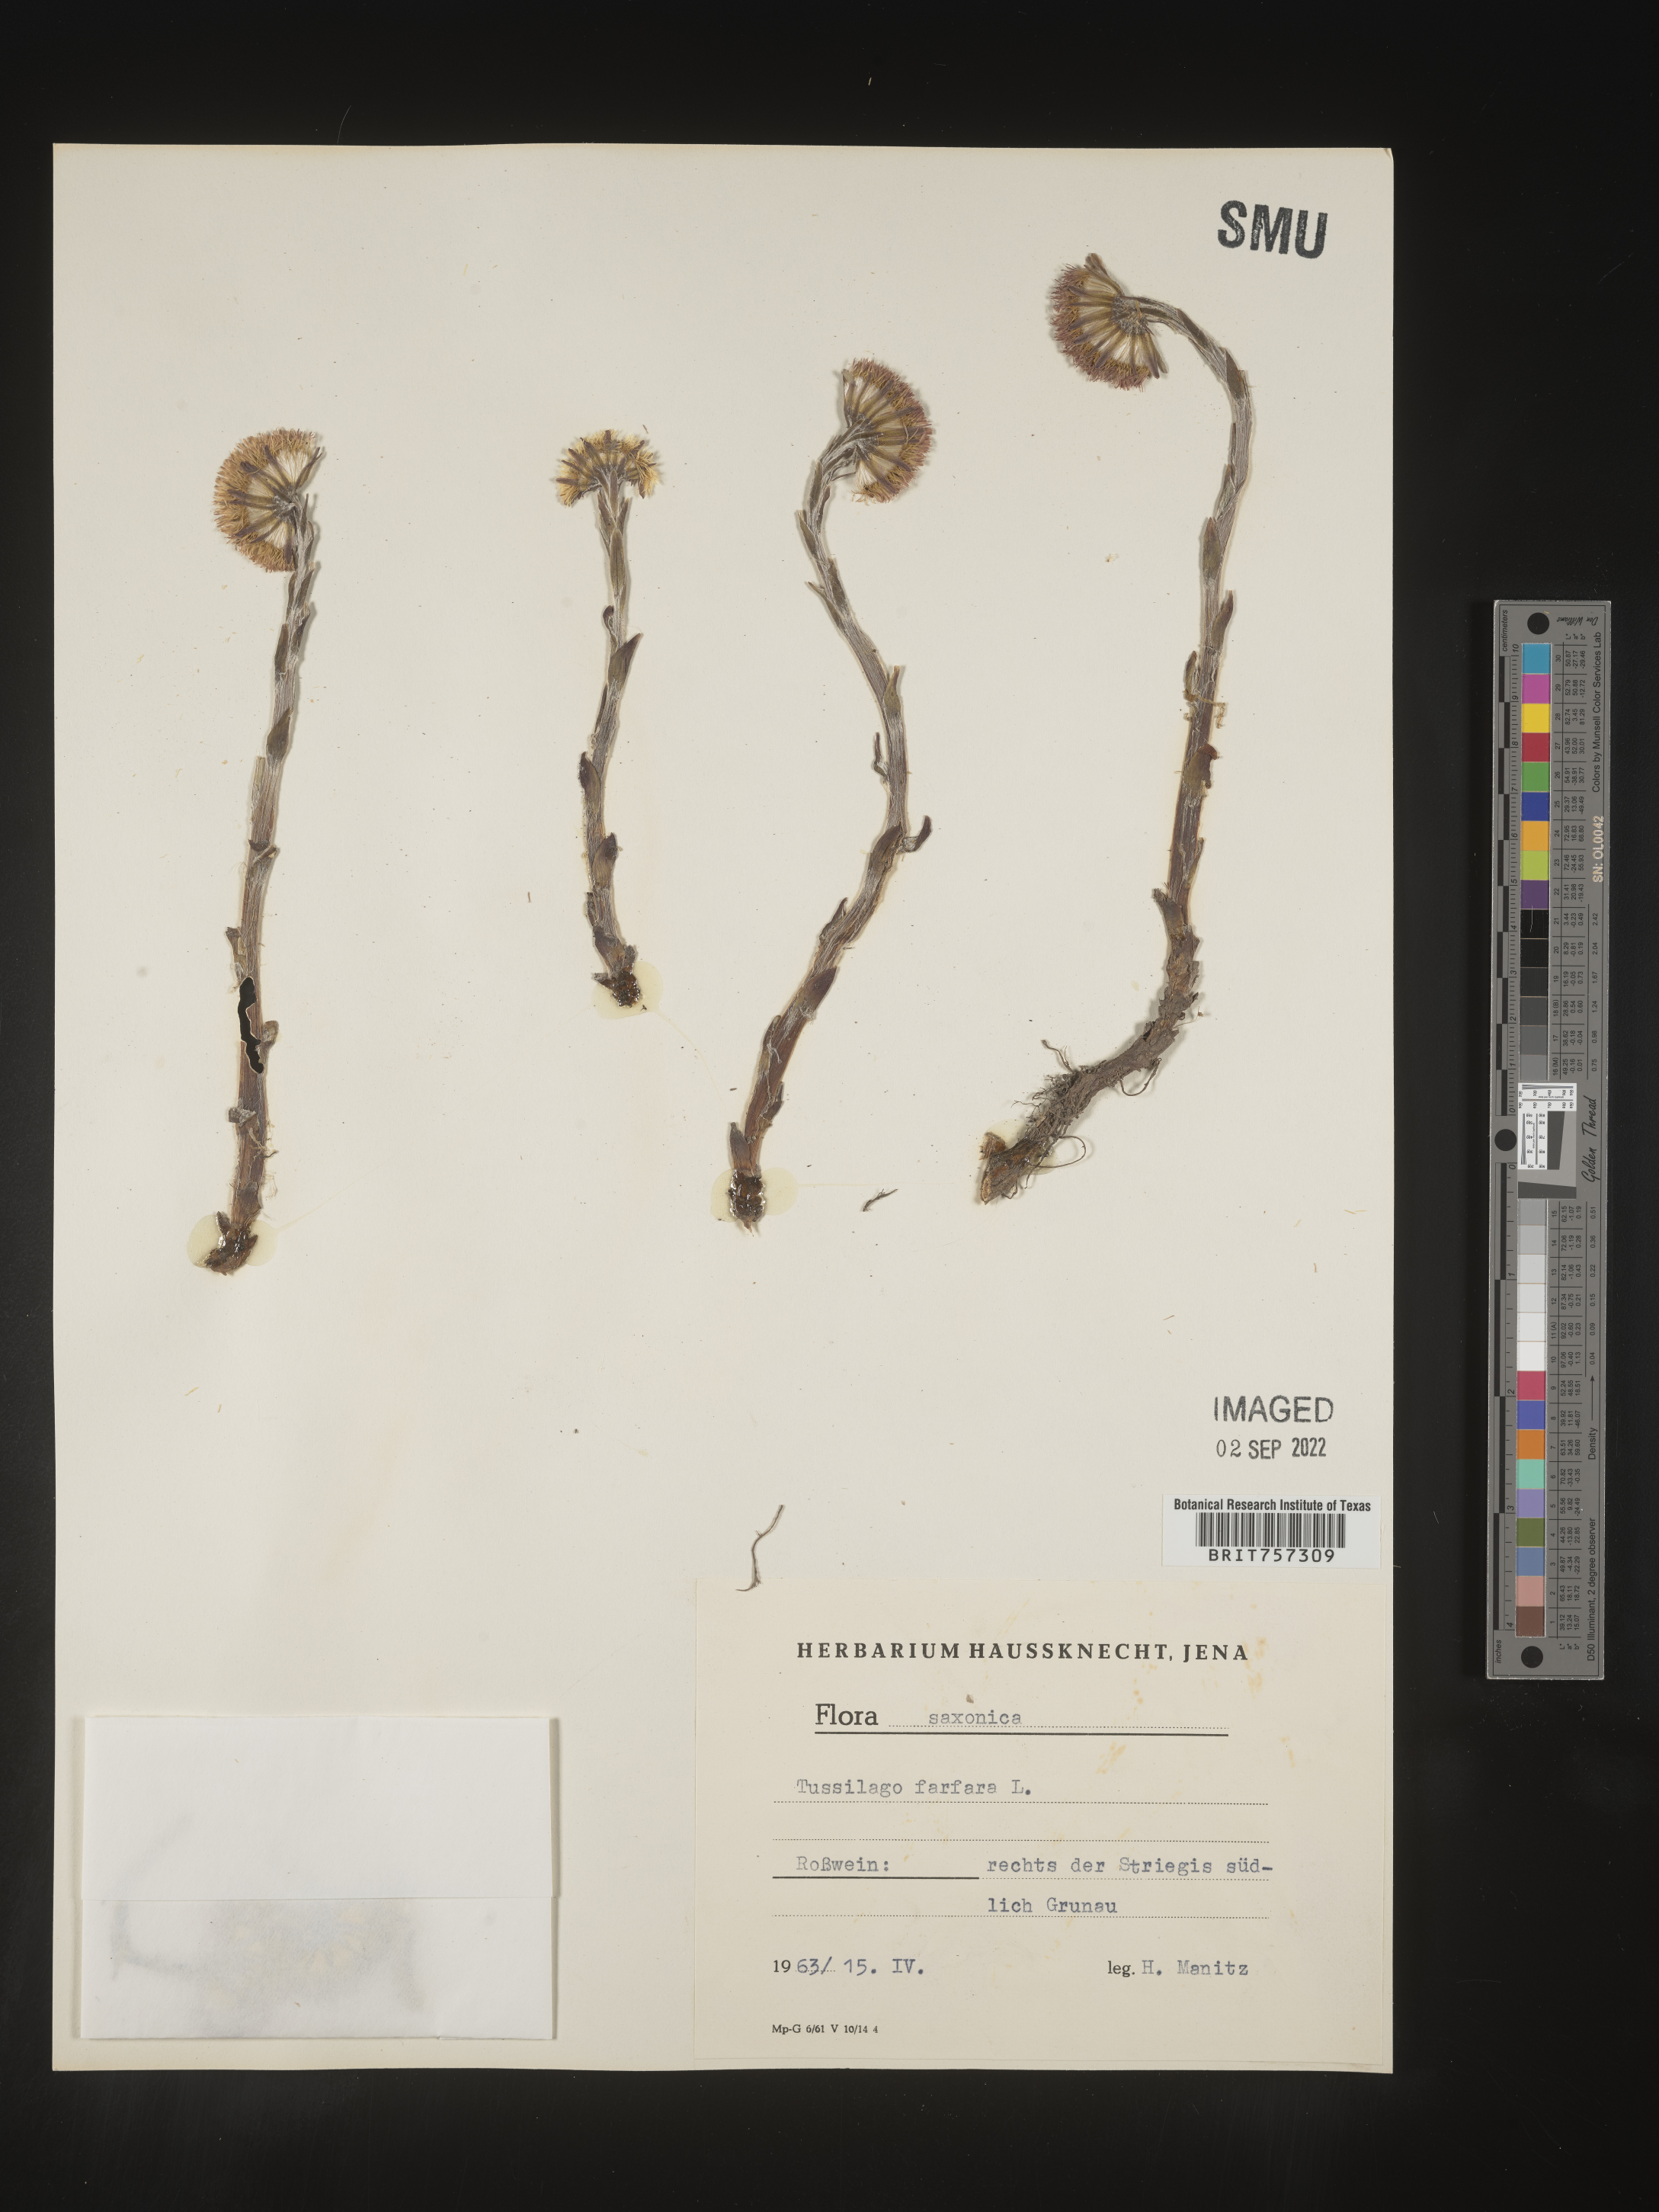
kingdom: Plantae
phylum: Tracheophyta
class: Magnoliopsida
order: Asterales
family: Asteraceae
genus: Tussilago
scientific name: Tussilago
